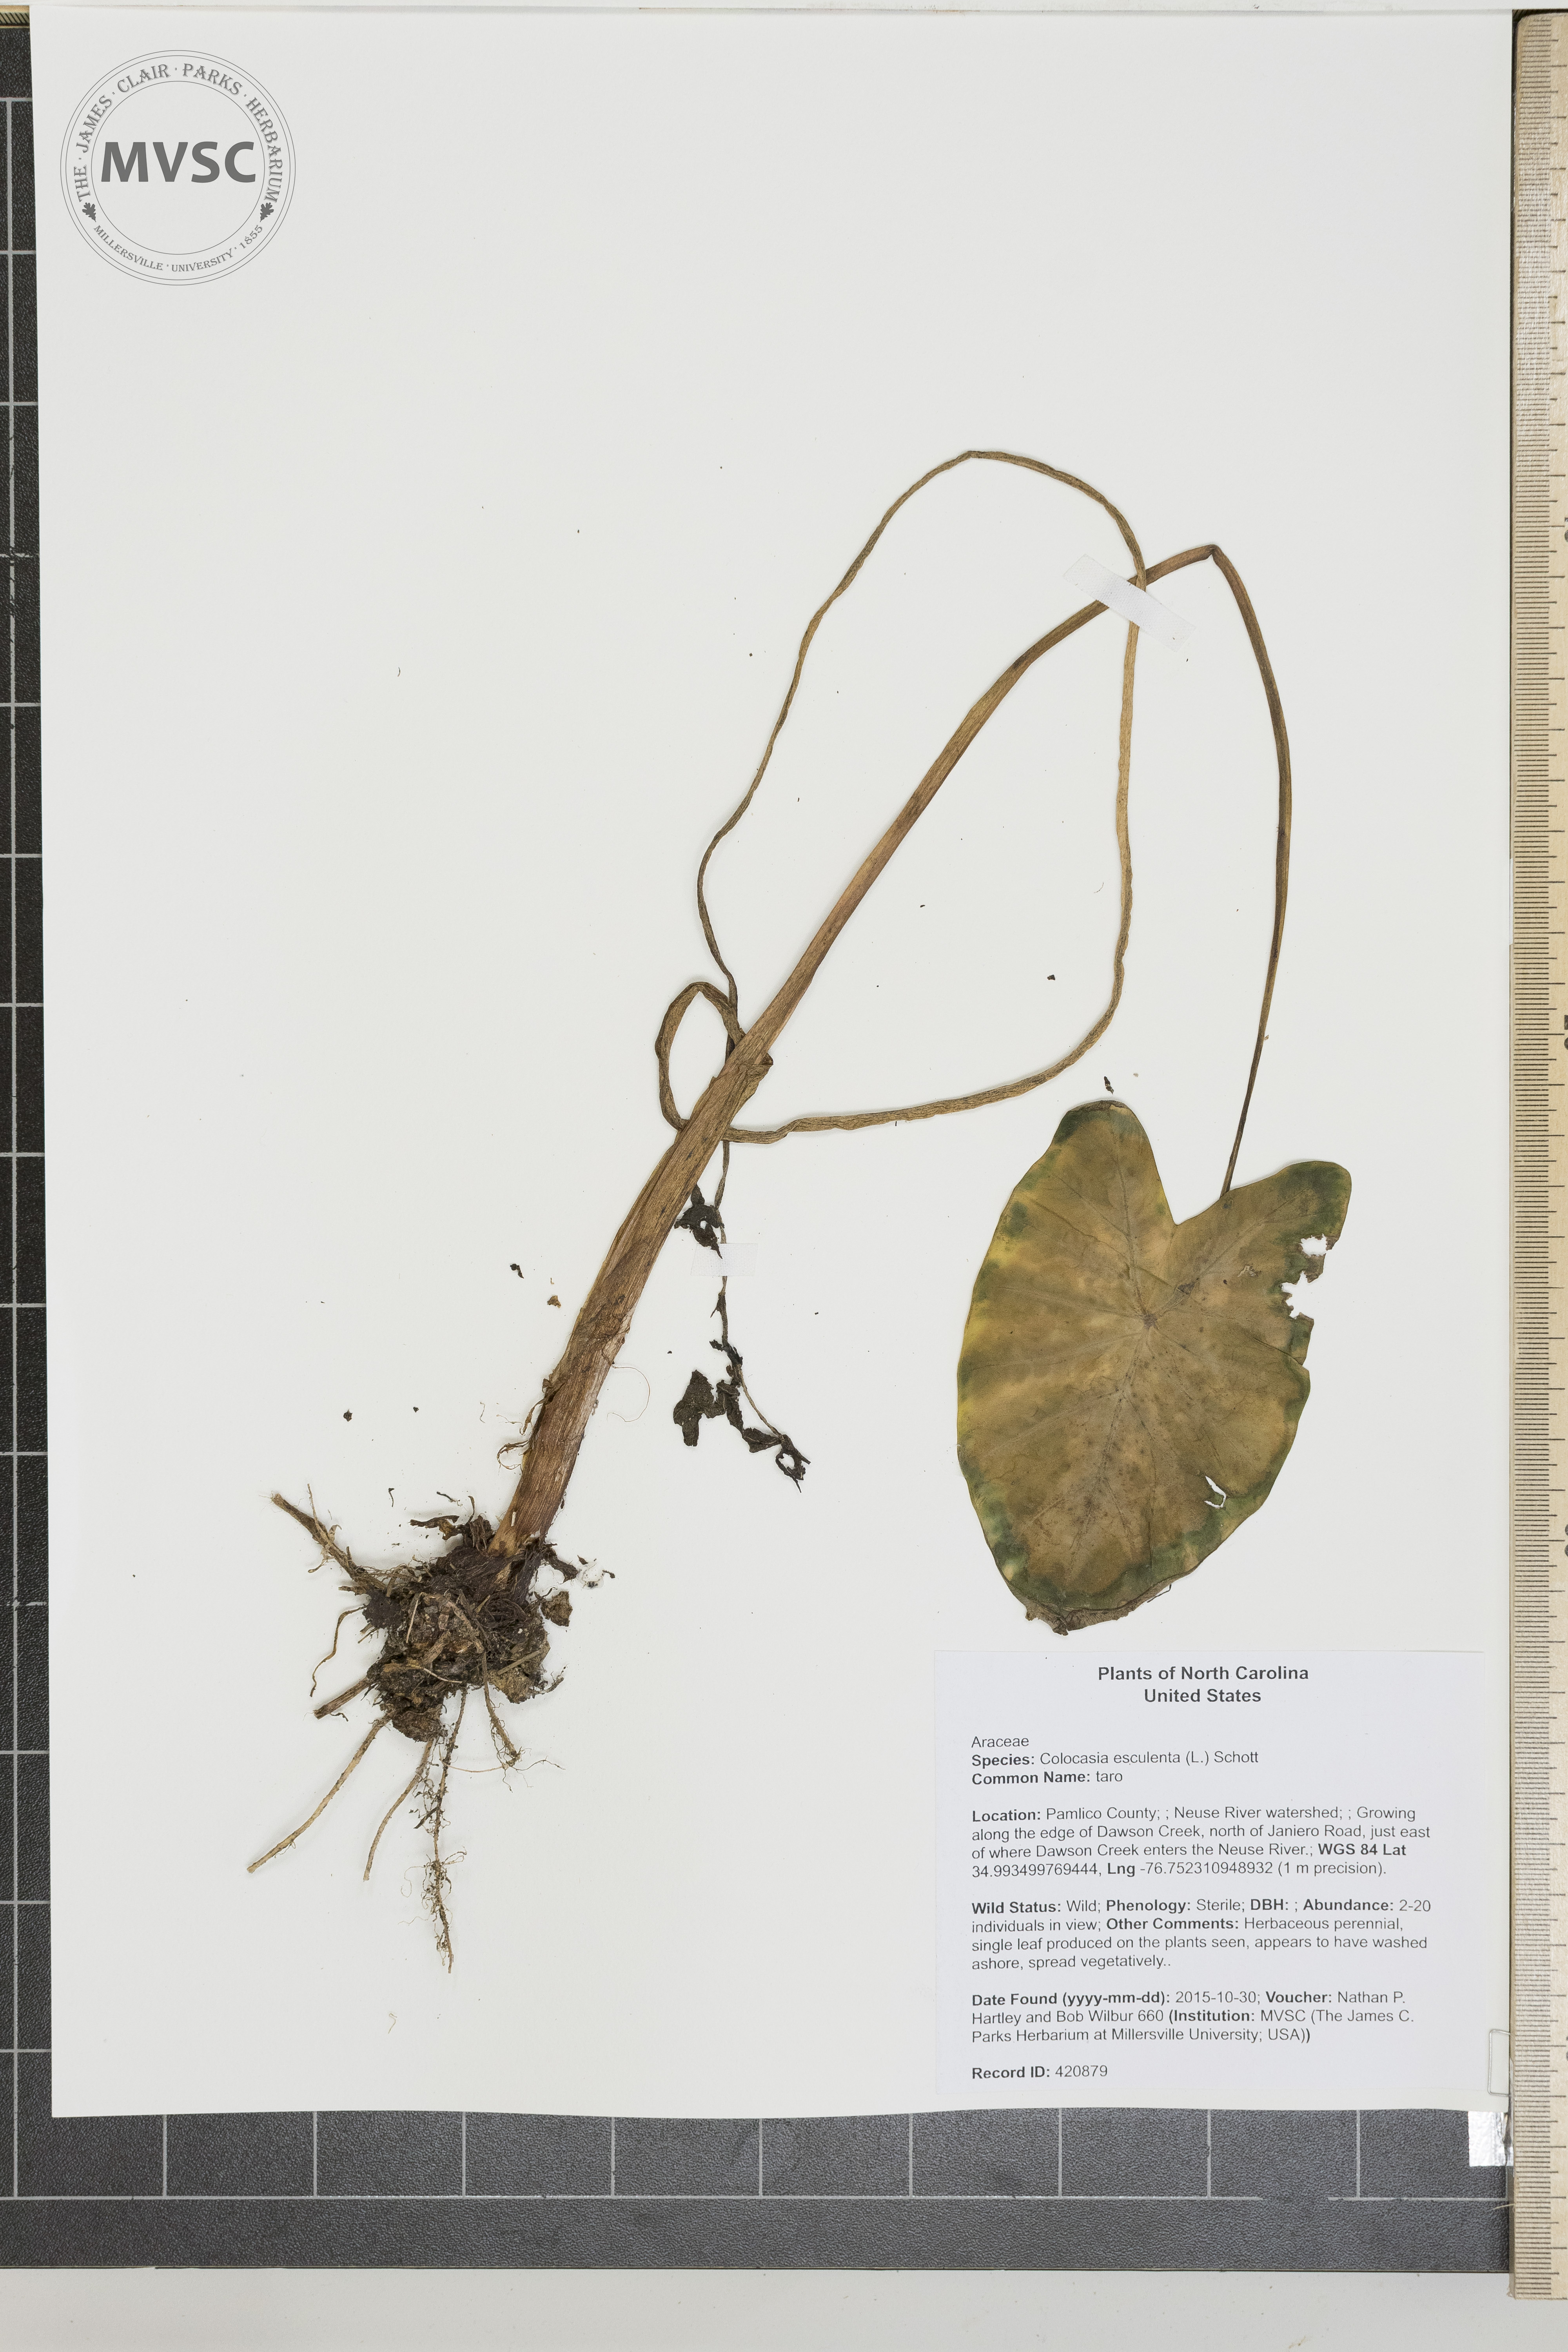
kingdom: Plantae
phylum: Tracheophyta
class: Liliopsida
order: Alismatales
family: Araceae
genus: Colocasia
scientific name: Colocasia esculenta
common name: taro
